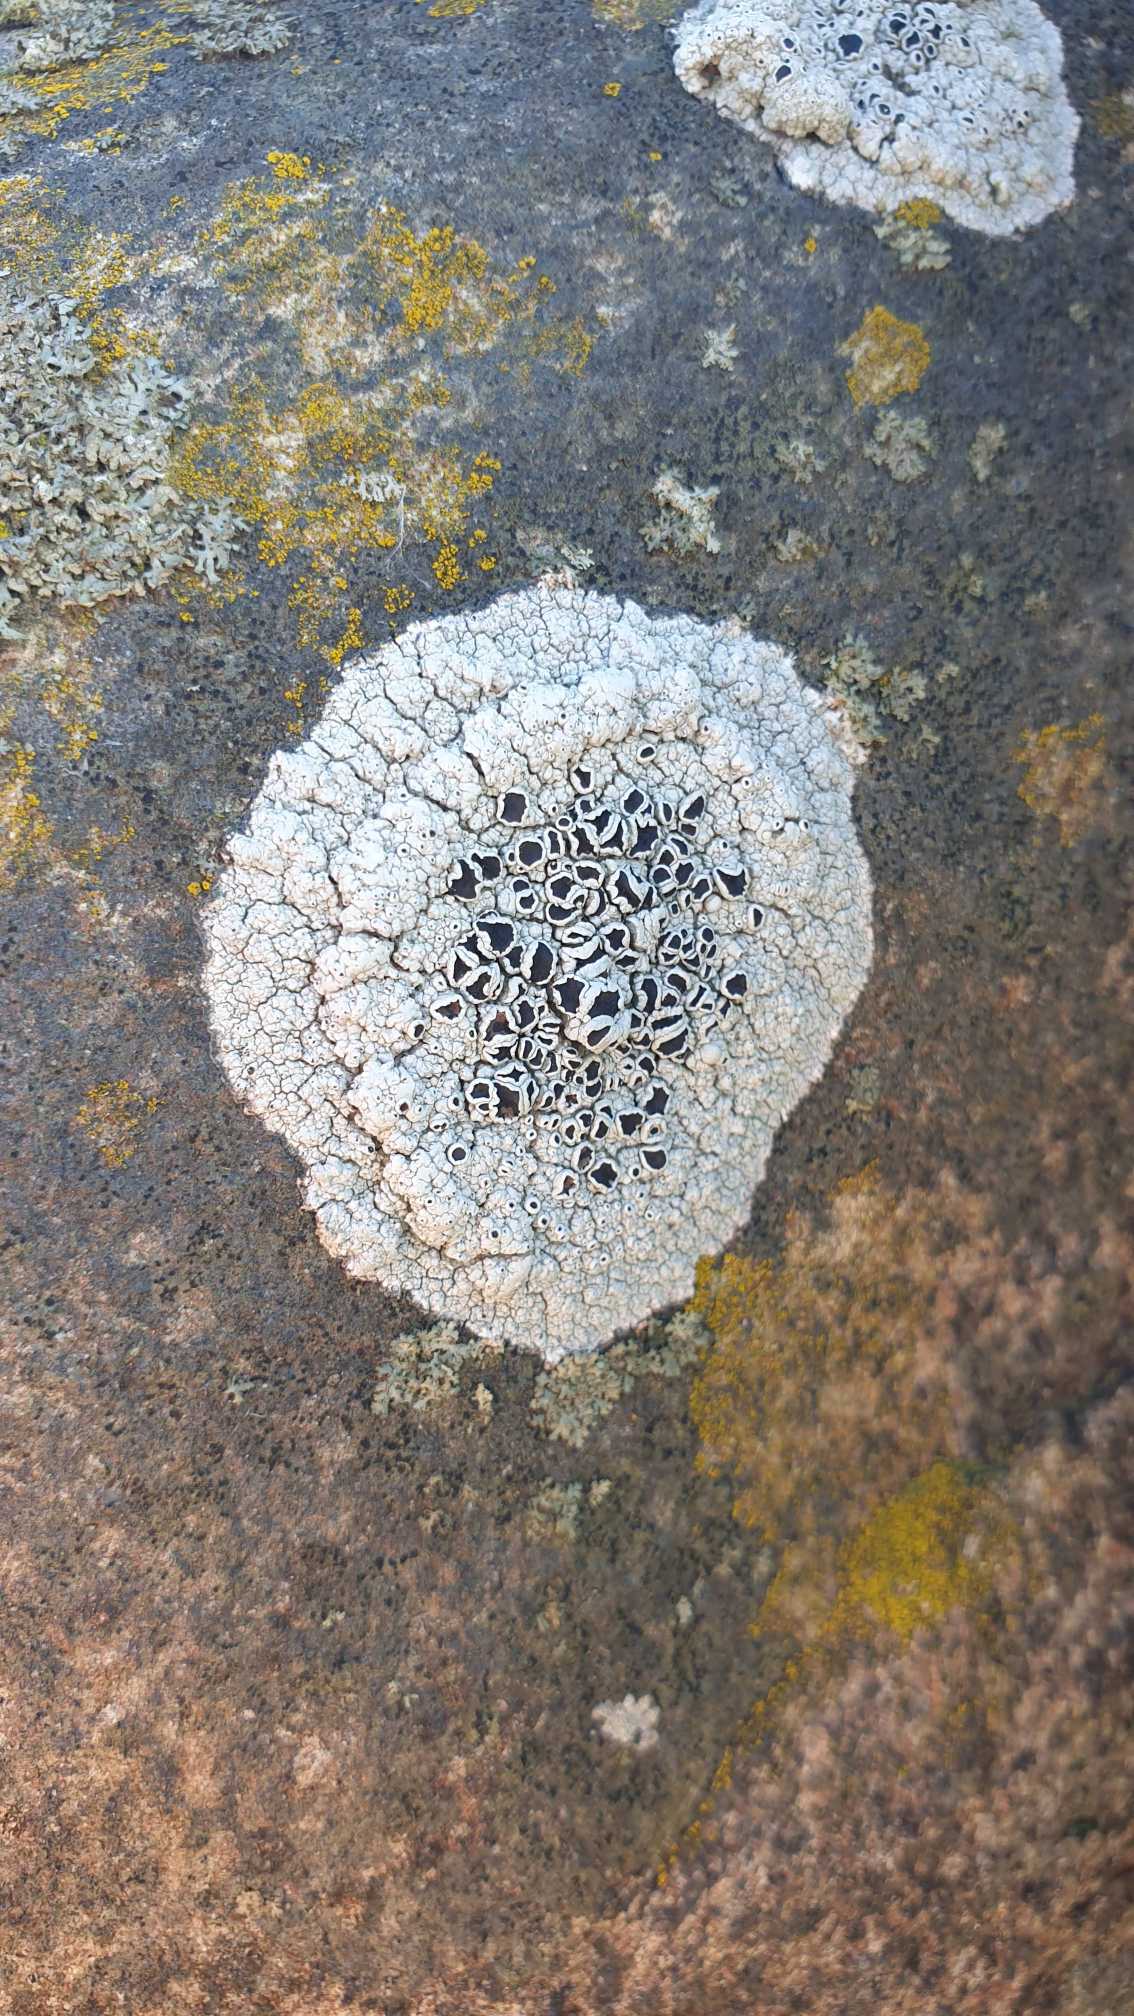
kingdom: Fungi
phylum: Ascomycota
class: Lecanoromycetes
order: Lecanorales
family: Tephromelataceae
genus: Tephromela
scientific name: Tephromela atra
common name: Sortfrugtet kantskivelav
